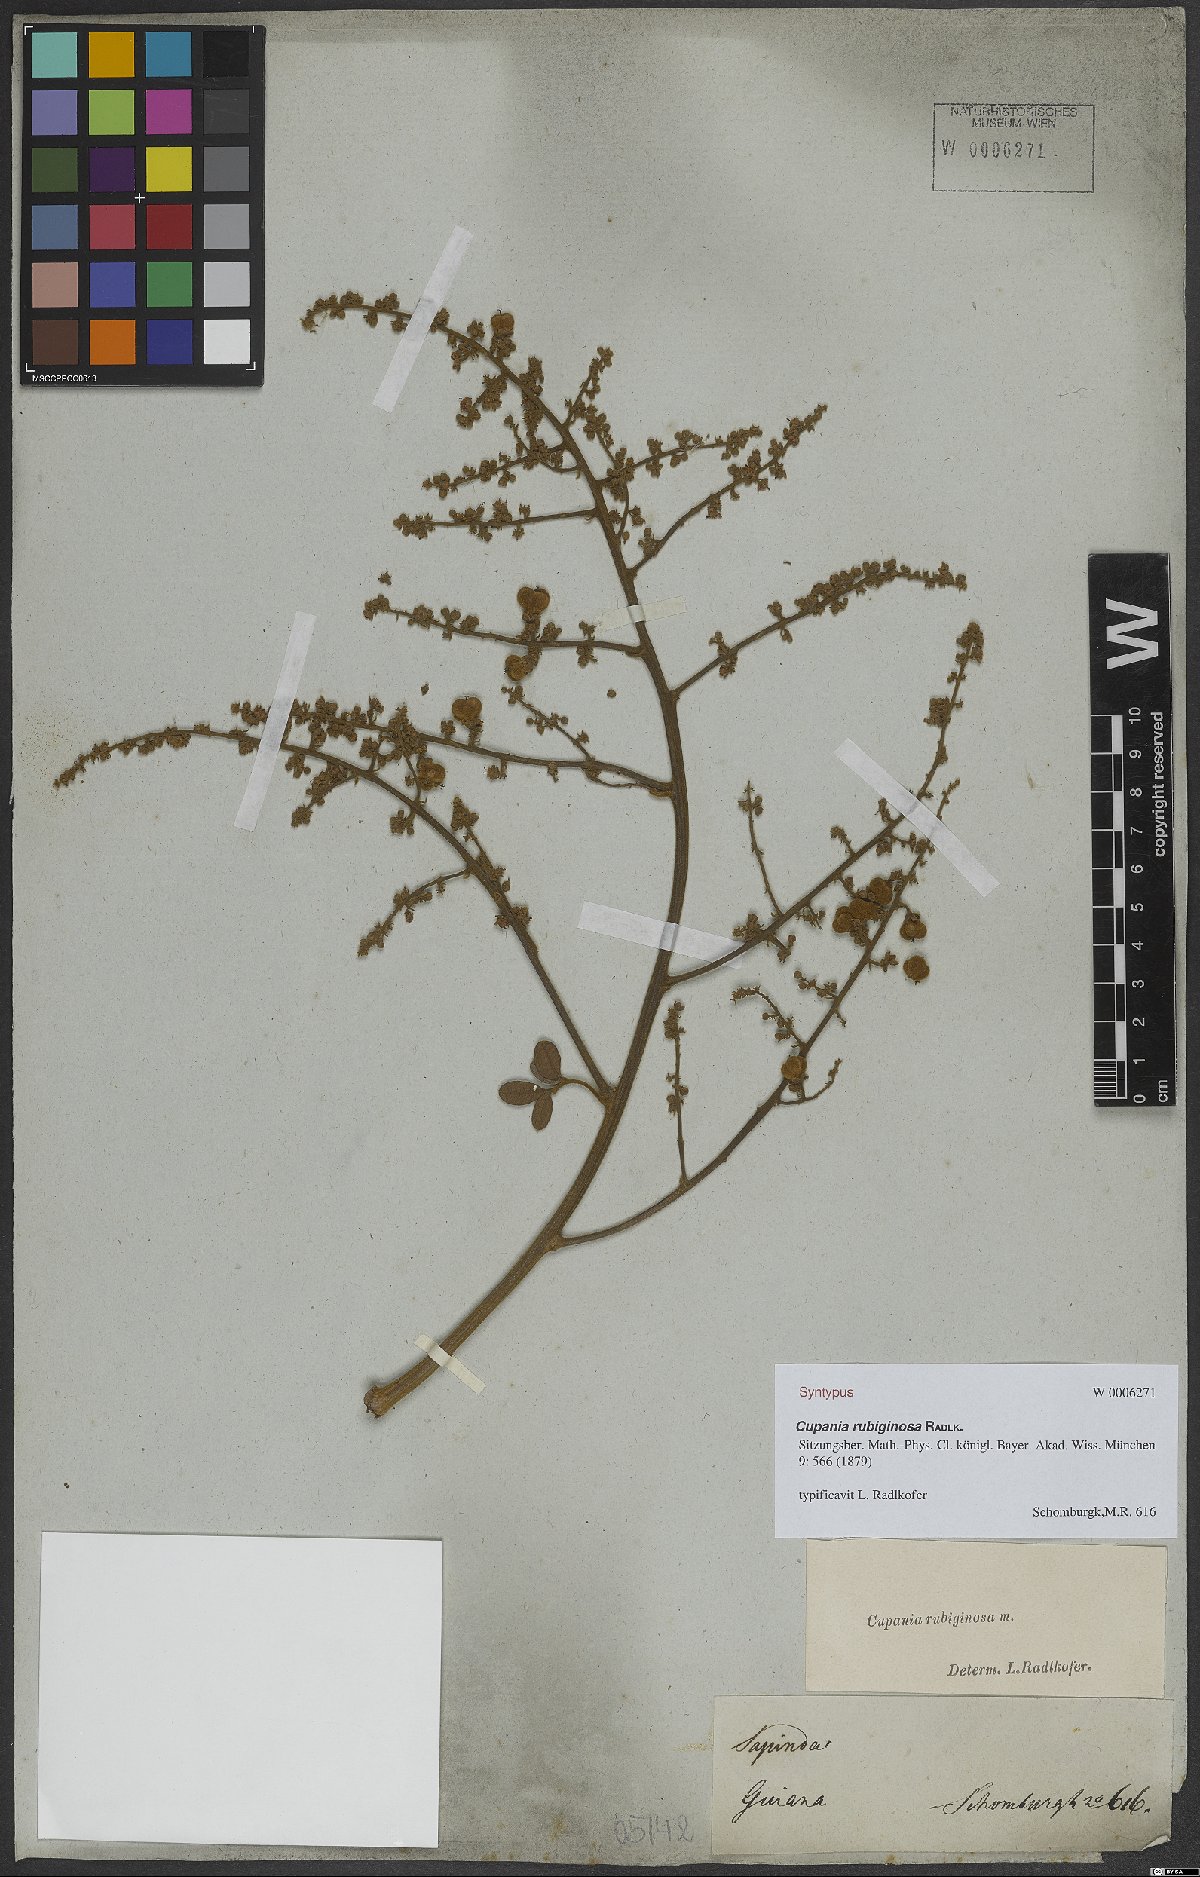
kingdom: Plantae
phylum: Tracheophyta
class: Magnoliopsida
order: Sapindales
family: Sapindaceae
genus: Cupania
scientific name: Cupania rubiginosa
